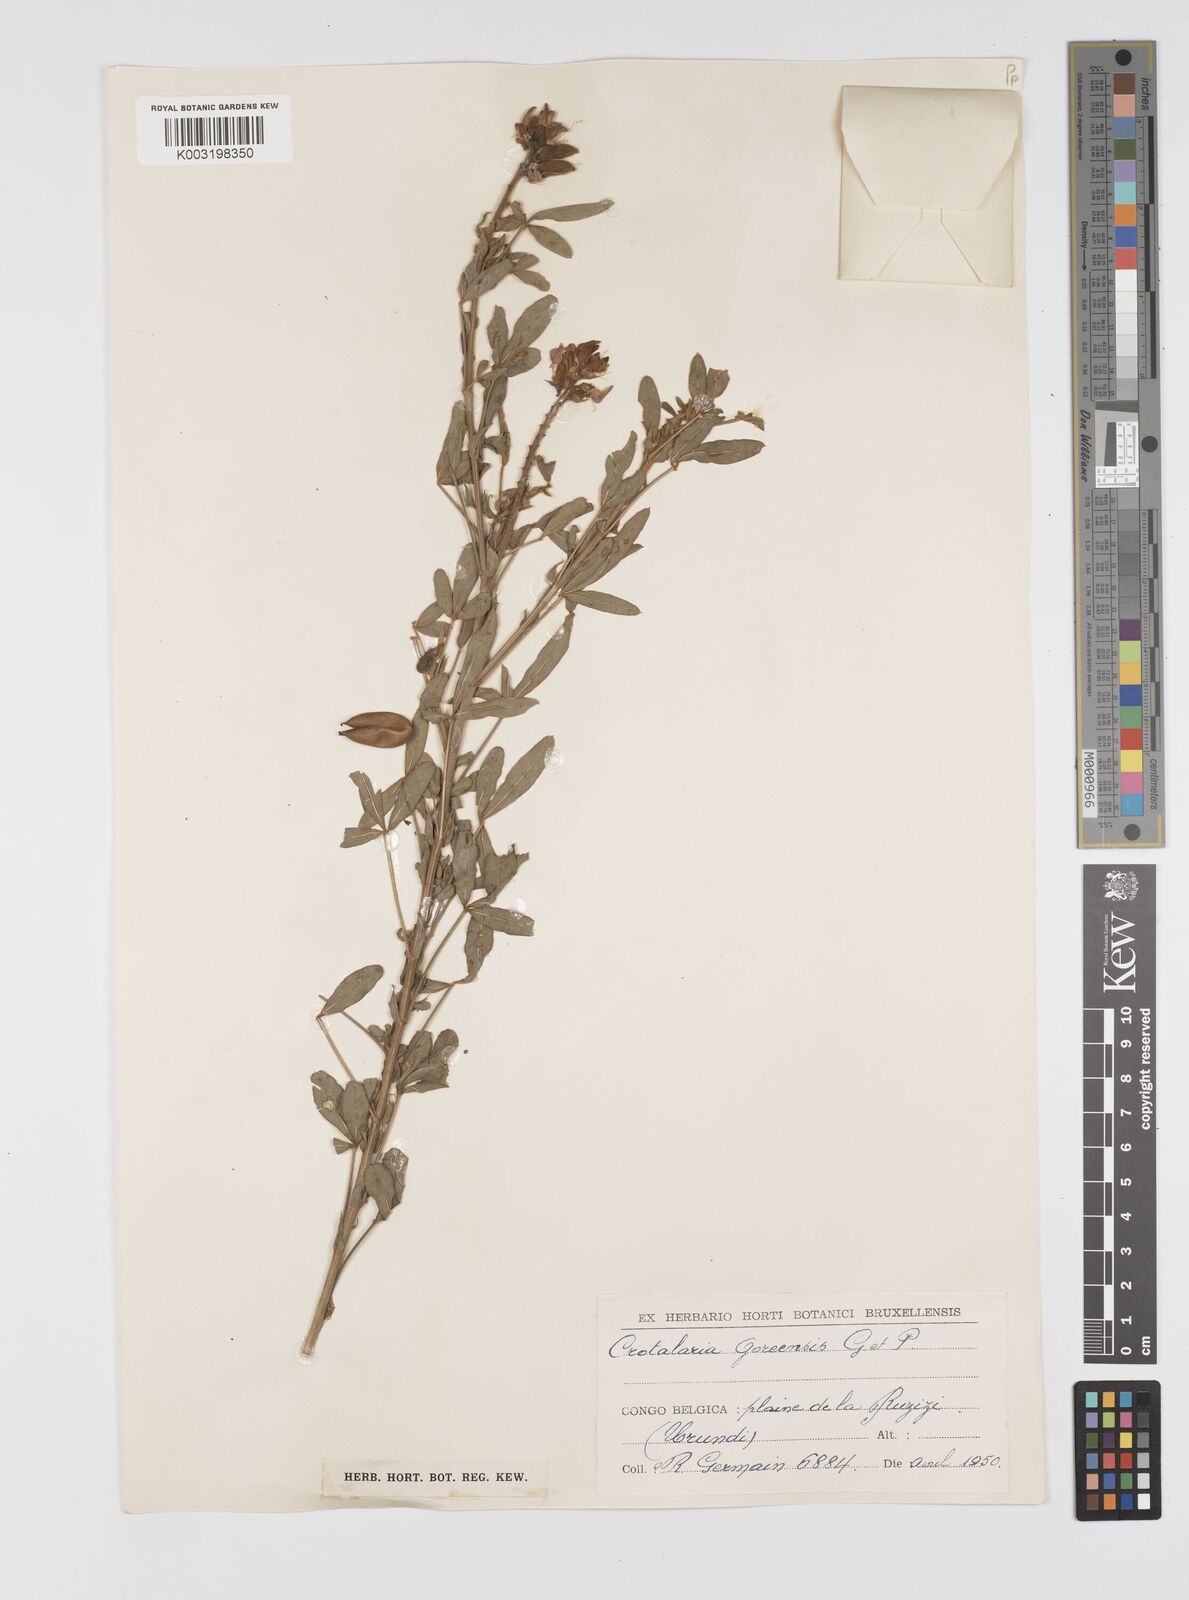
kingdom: Plantae
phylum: Tracheophyta
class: Magnoliopsida
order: Fabales
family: Fabaceae
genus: Crotalaria
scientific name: Crotalaria goreensis
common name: Gambia-pea
